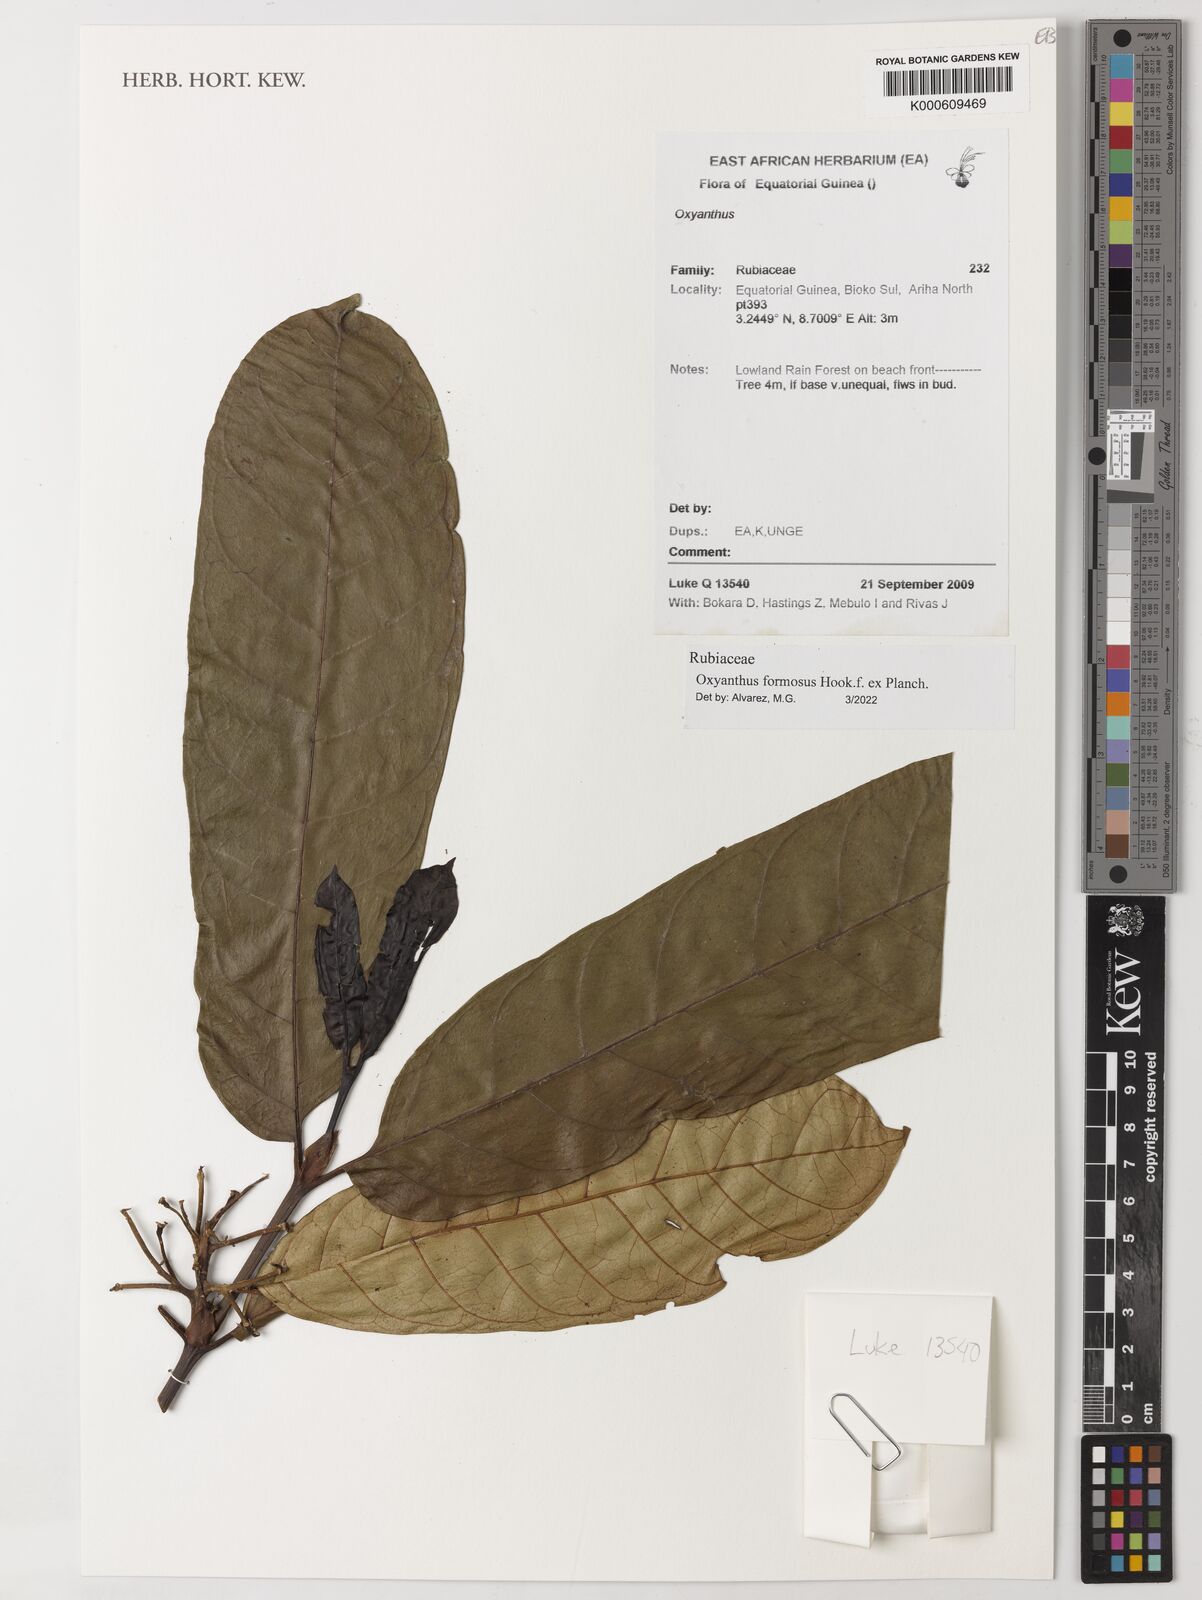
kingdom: Plantae
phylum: Tracheophyta
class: Magnoliopsida
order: Gentianales
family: Rubiaceae
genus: Oxyanthus
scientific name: Oxyanthus
